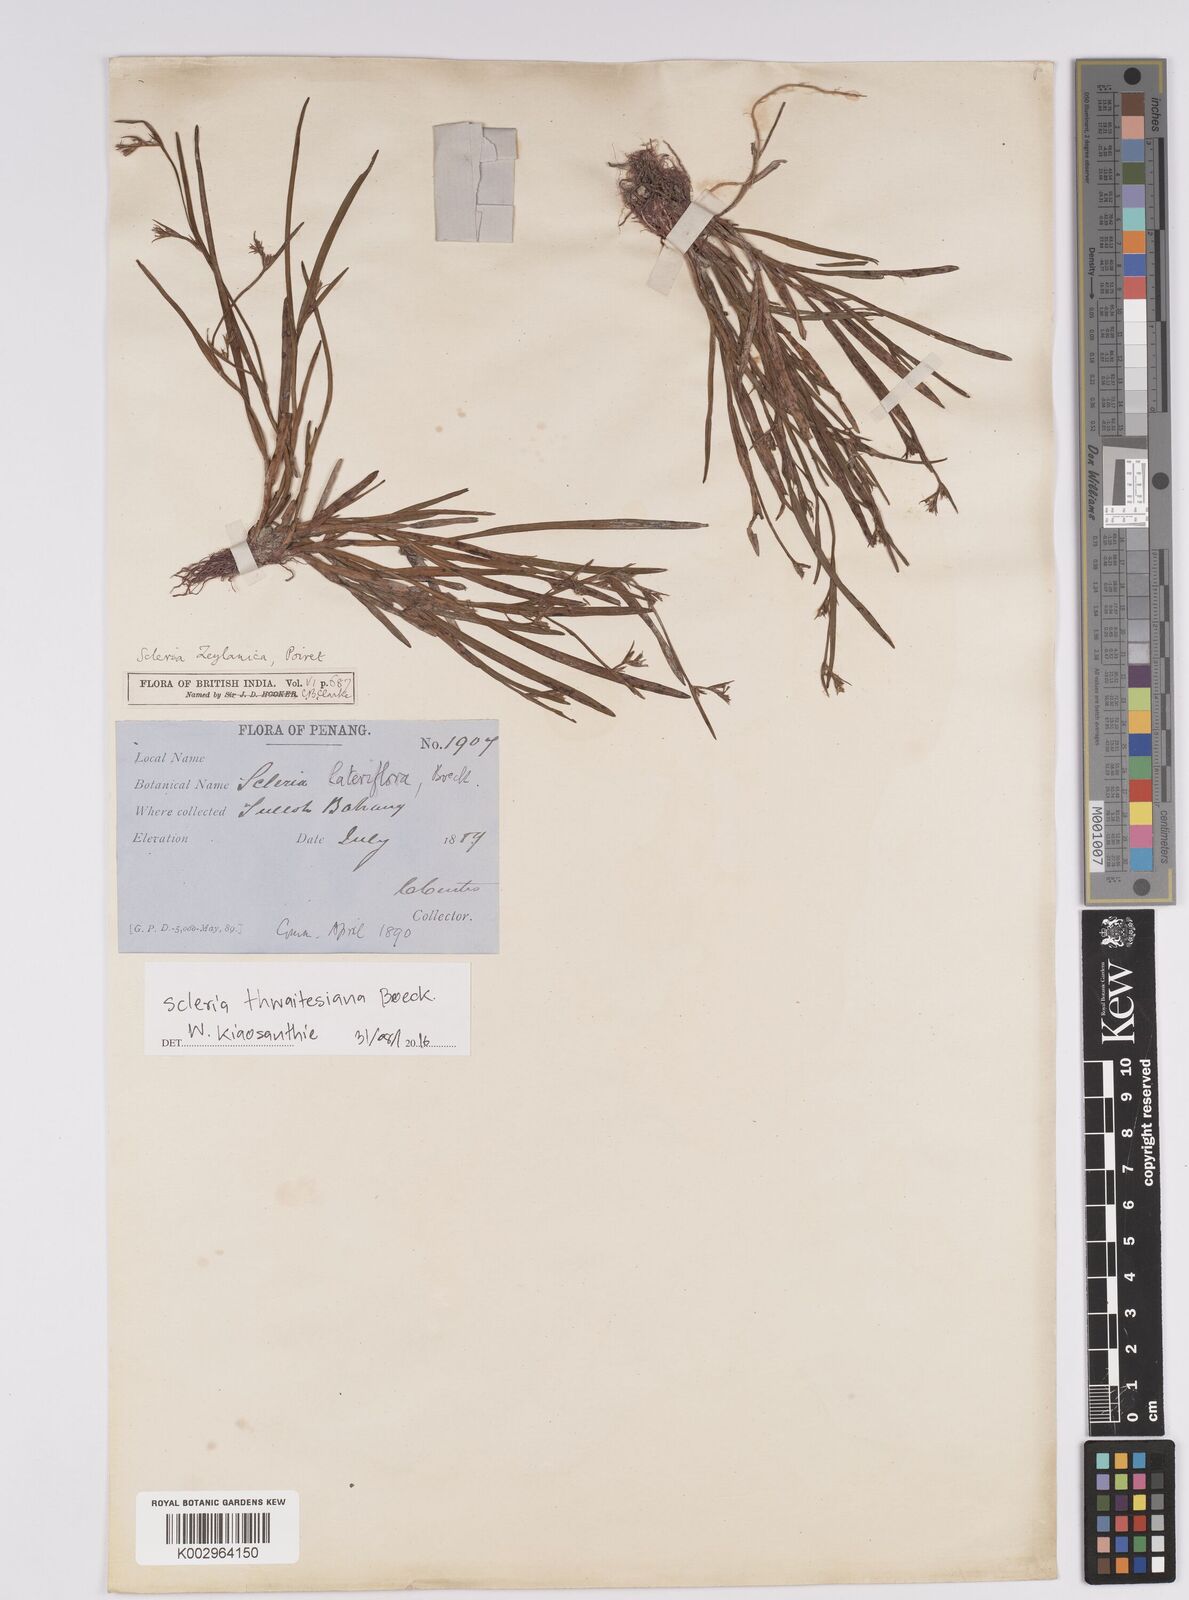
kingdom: Plantae
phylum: Tracheophyta
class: Liliopsida
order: Poales
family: Cyperaceae
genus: Scleria
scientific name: Scleria thwaitesiana
